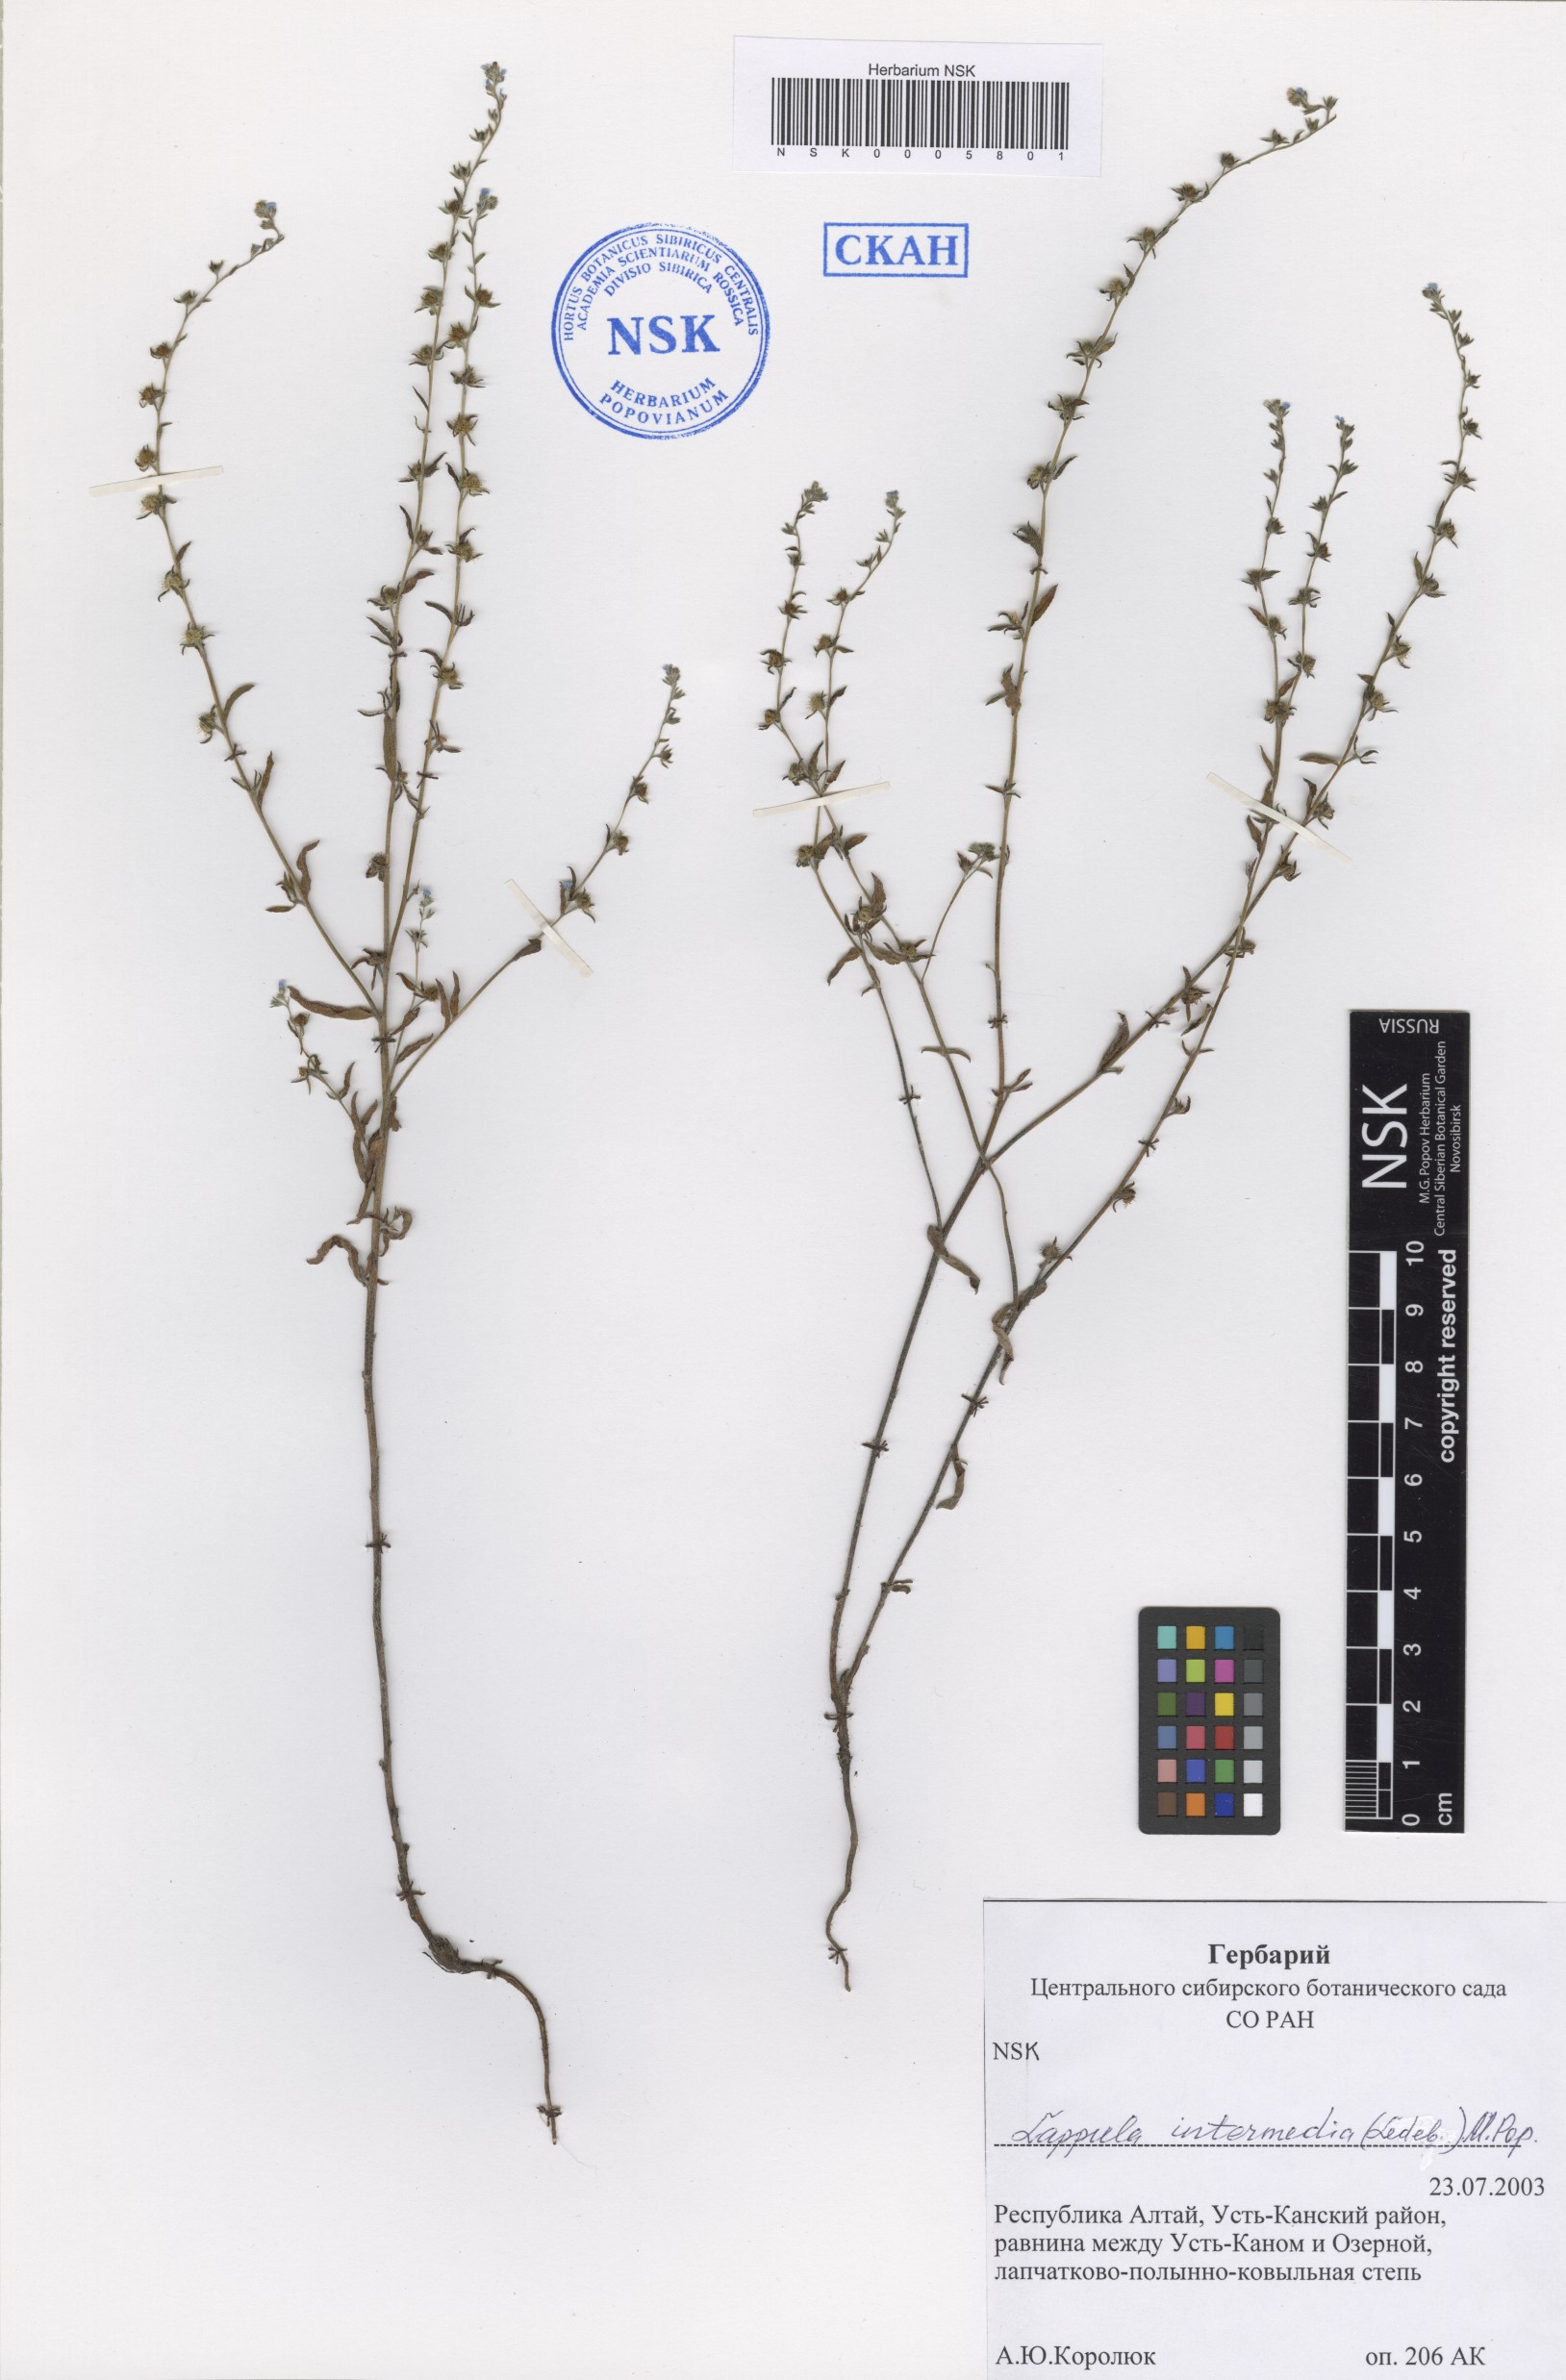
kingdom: Plantae
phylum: Tracheophyta
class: Magnoliopsida
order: Boraginales
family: Boraginaceae
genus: Lappula
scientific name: Lappula intermedia
